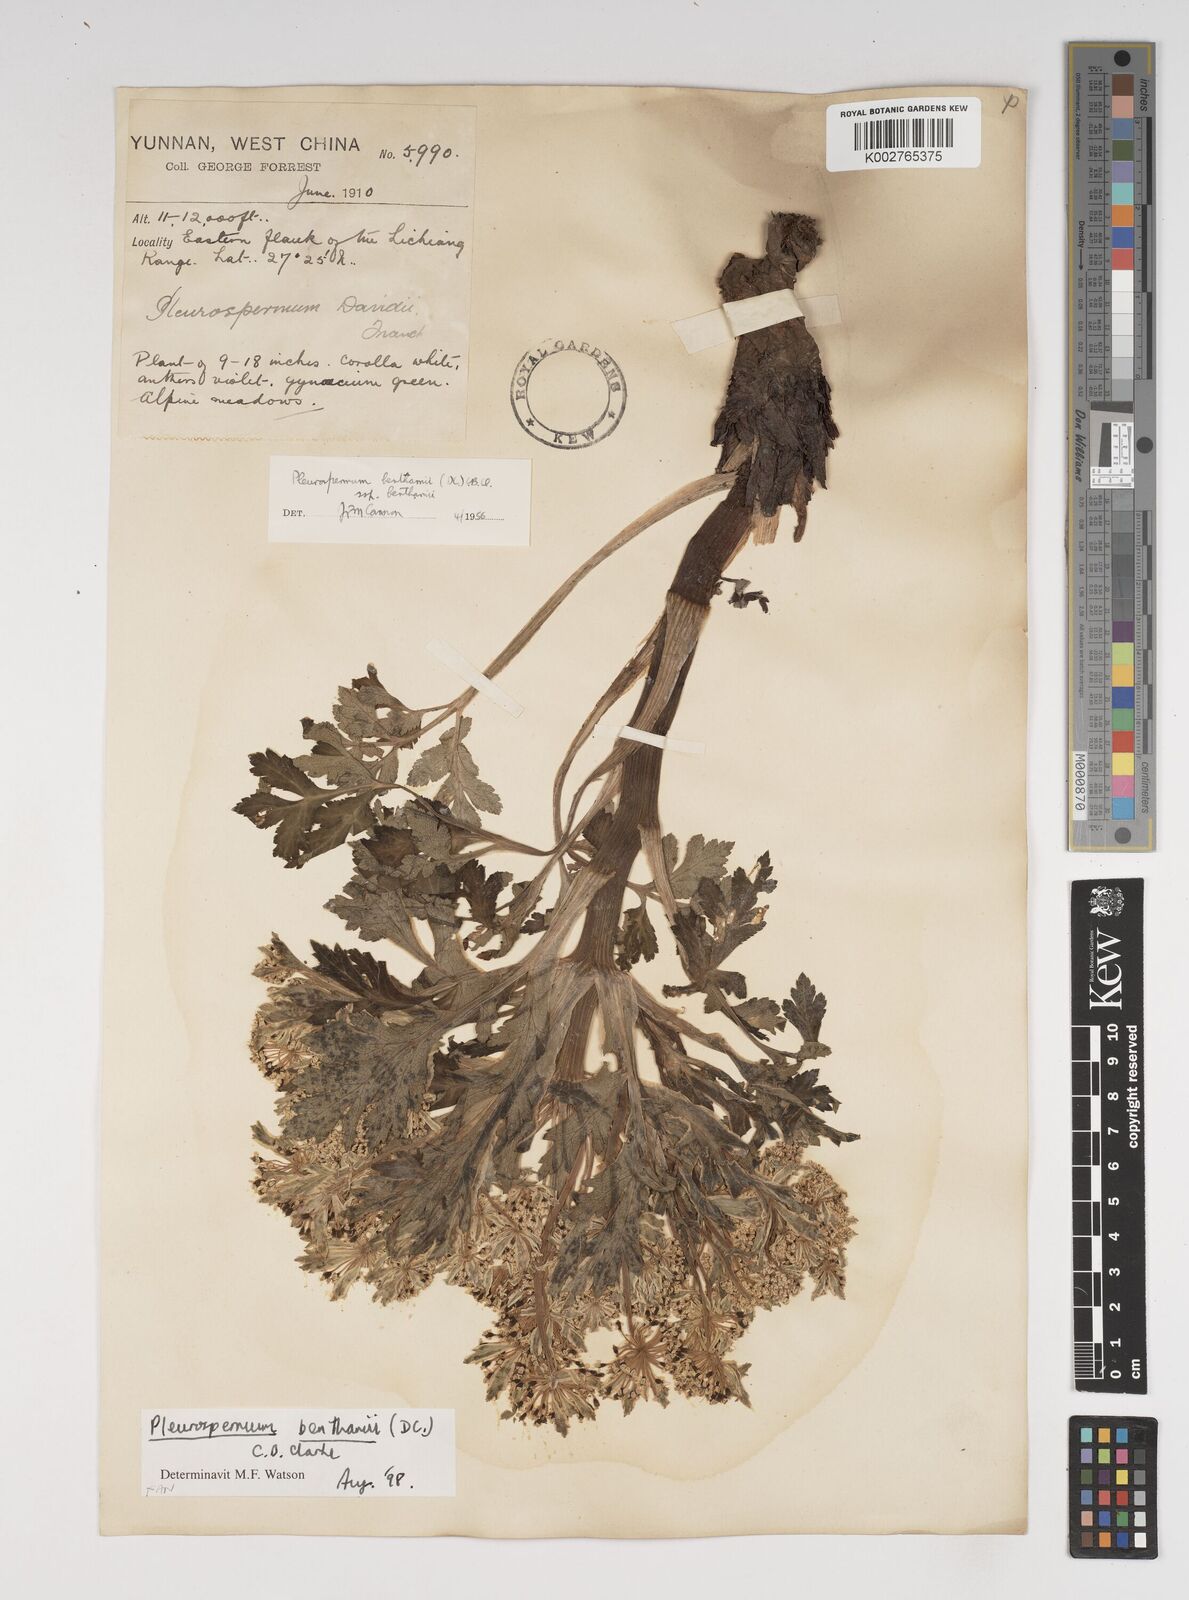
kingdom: Plantae
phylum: Tracheophyta
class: Magnoliopsida
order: Apiales
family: Apiaceae
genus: Hymenidium
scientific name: Hymenidium benthamii
